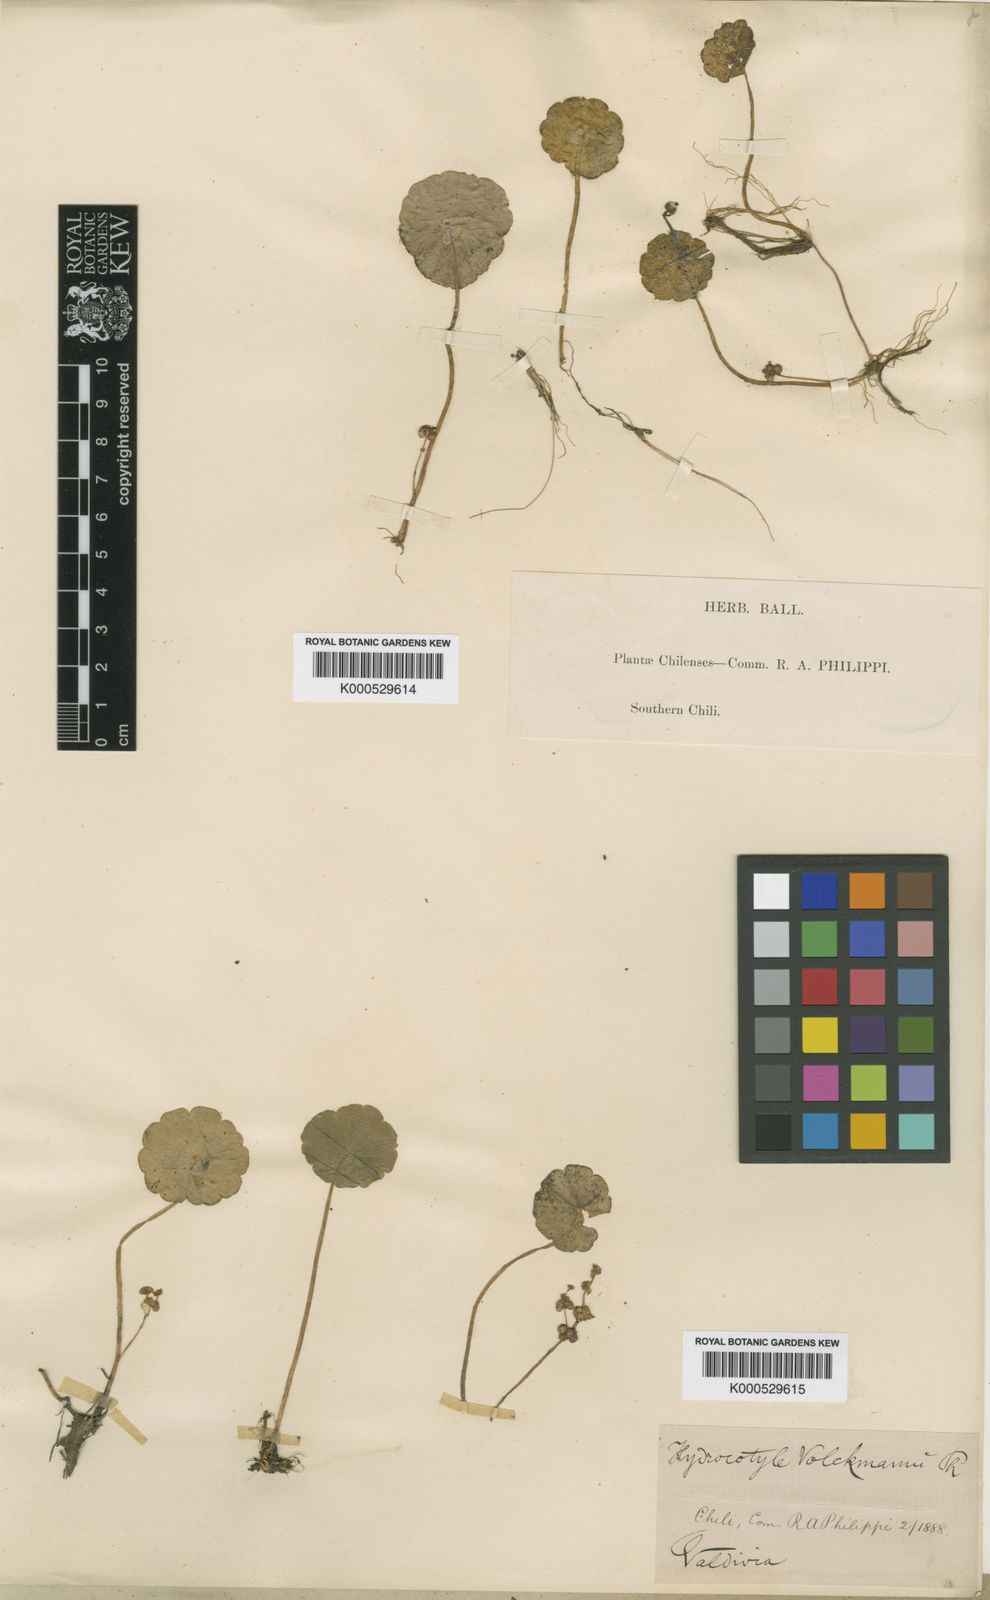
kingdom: Plantae
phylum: Tracheophyta
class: Magnoliopsida
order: Apiales
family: Araliaceae
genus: Hydrocotyle
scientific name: Hydrocotyle verticillata
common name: Whorled marshpennywort
